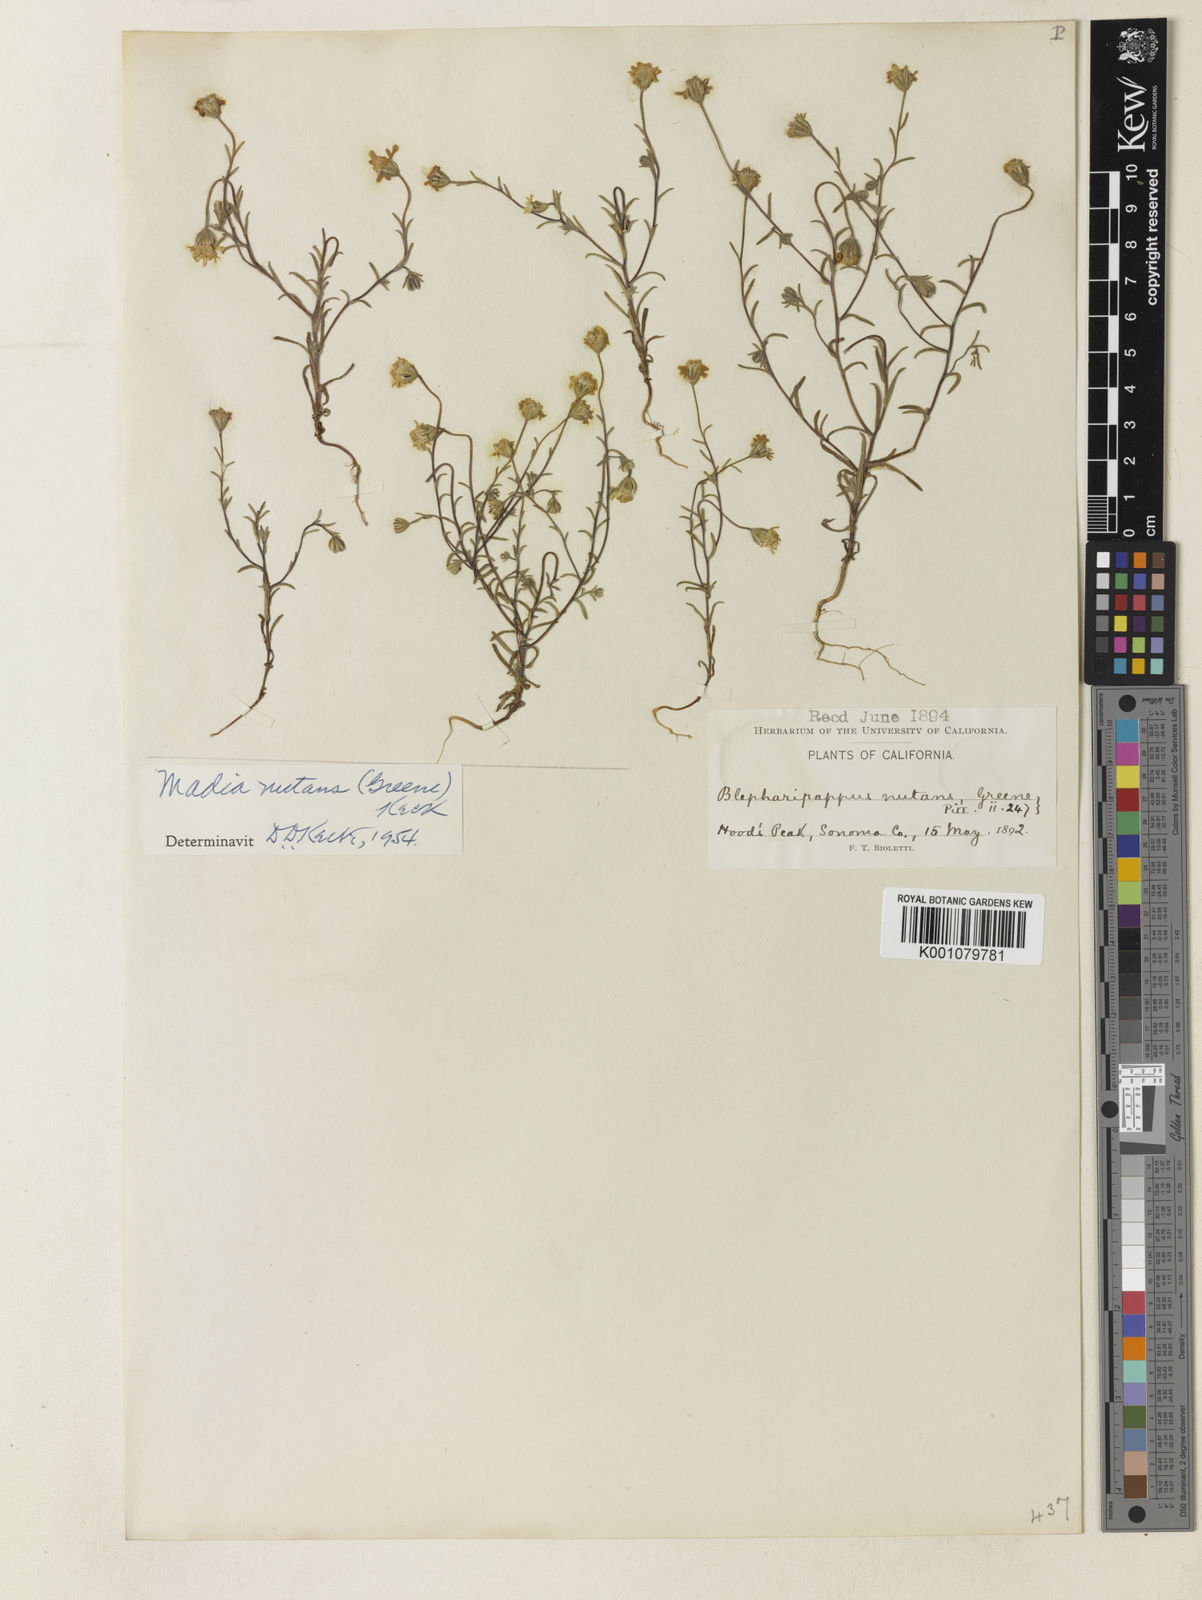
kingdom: Plantae
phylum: Tracheophyta
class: Magnoliopsida
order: Asterales
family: Asteraceae
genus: Harmonia
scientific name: Harmonia nutans
